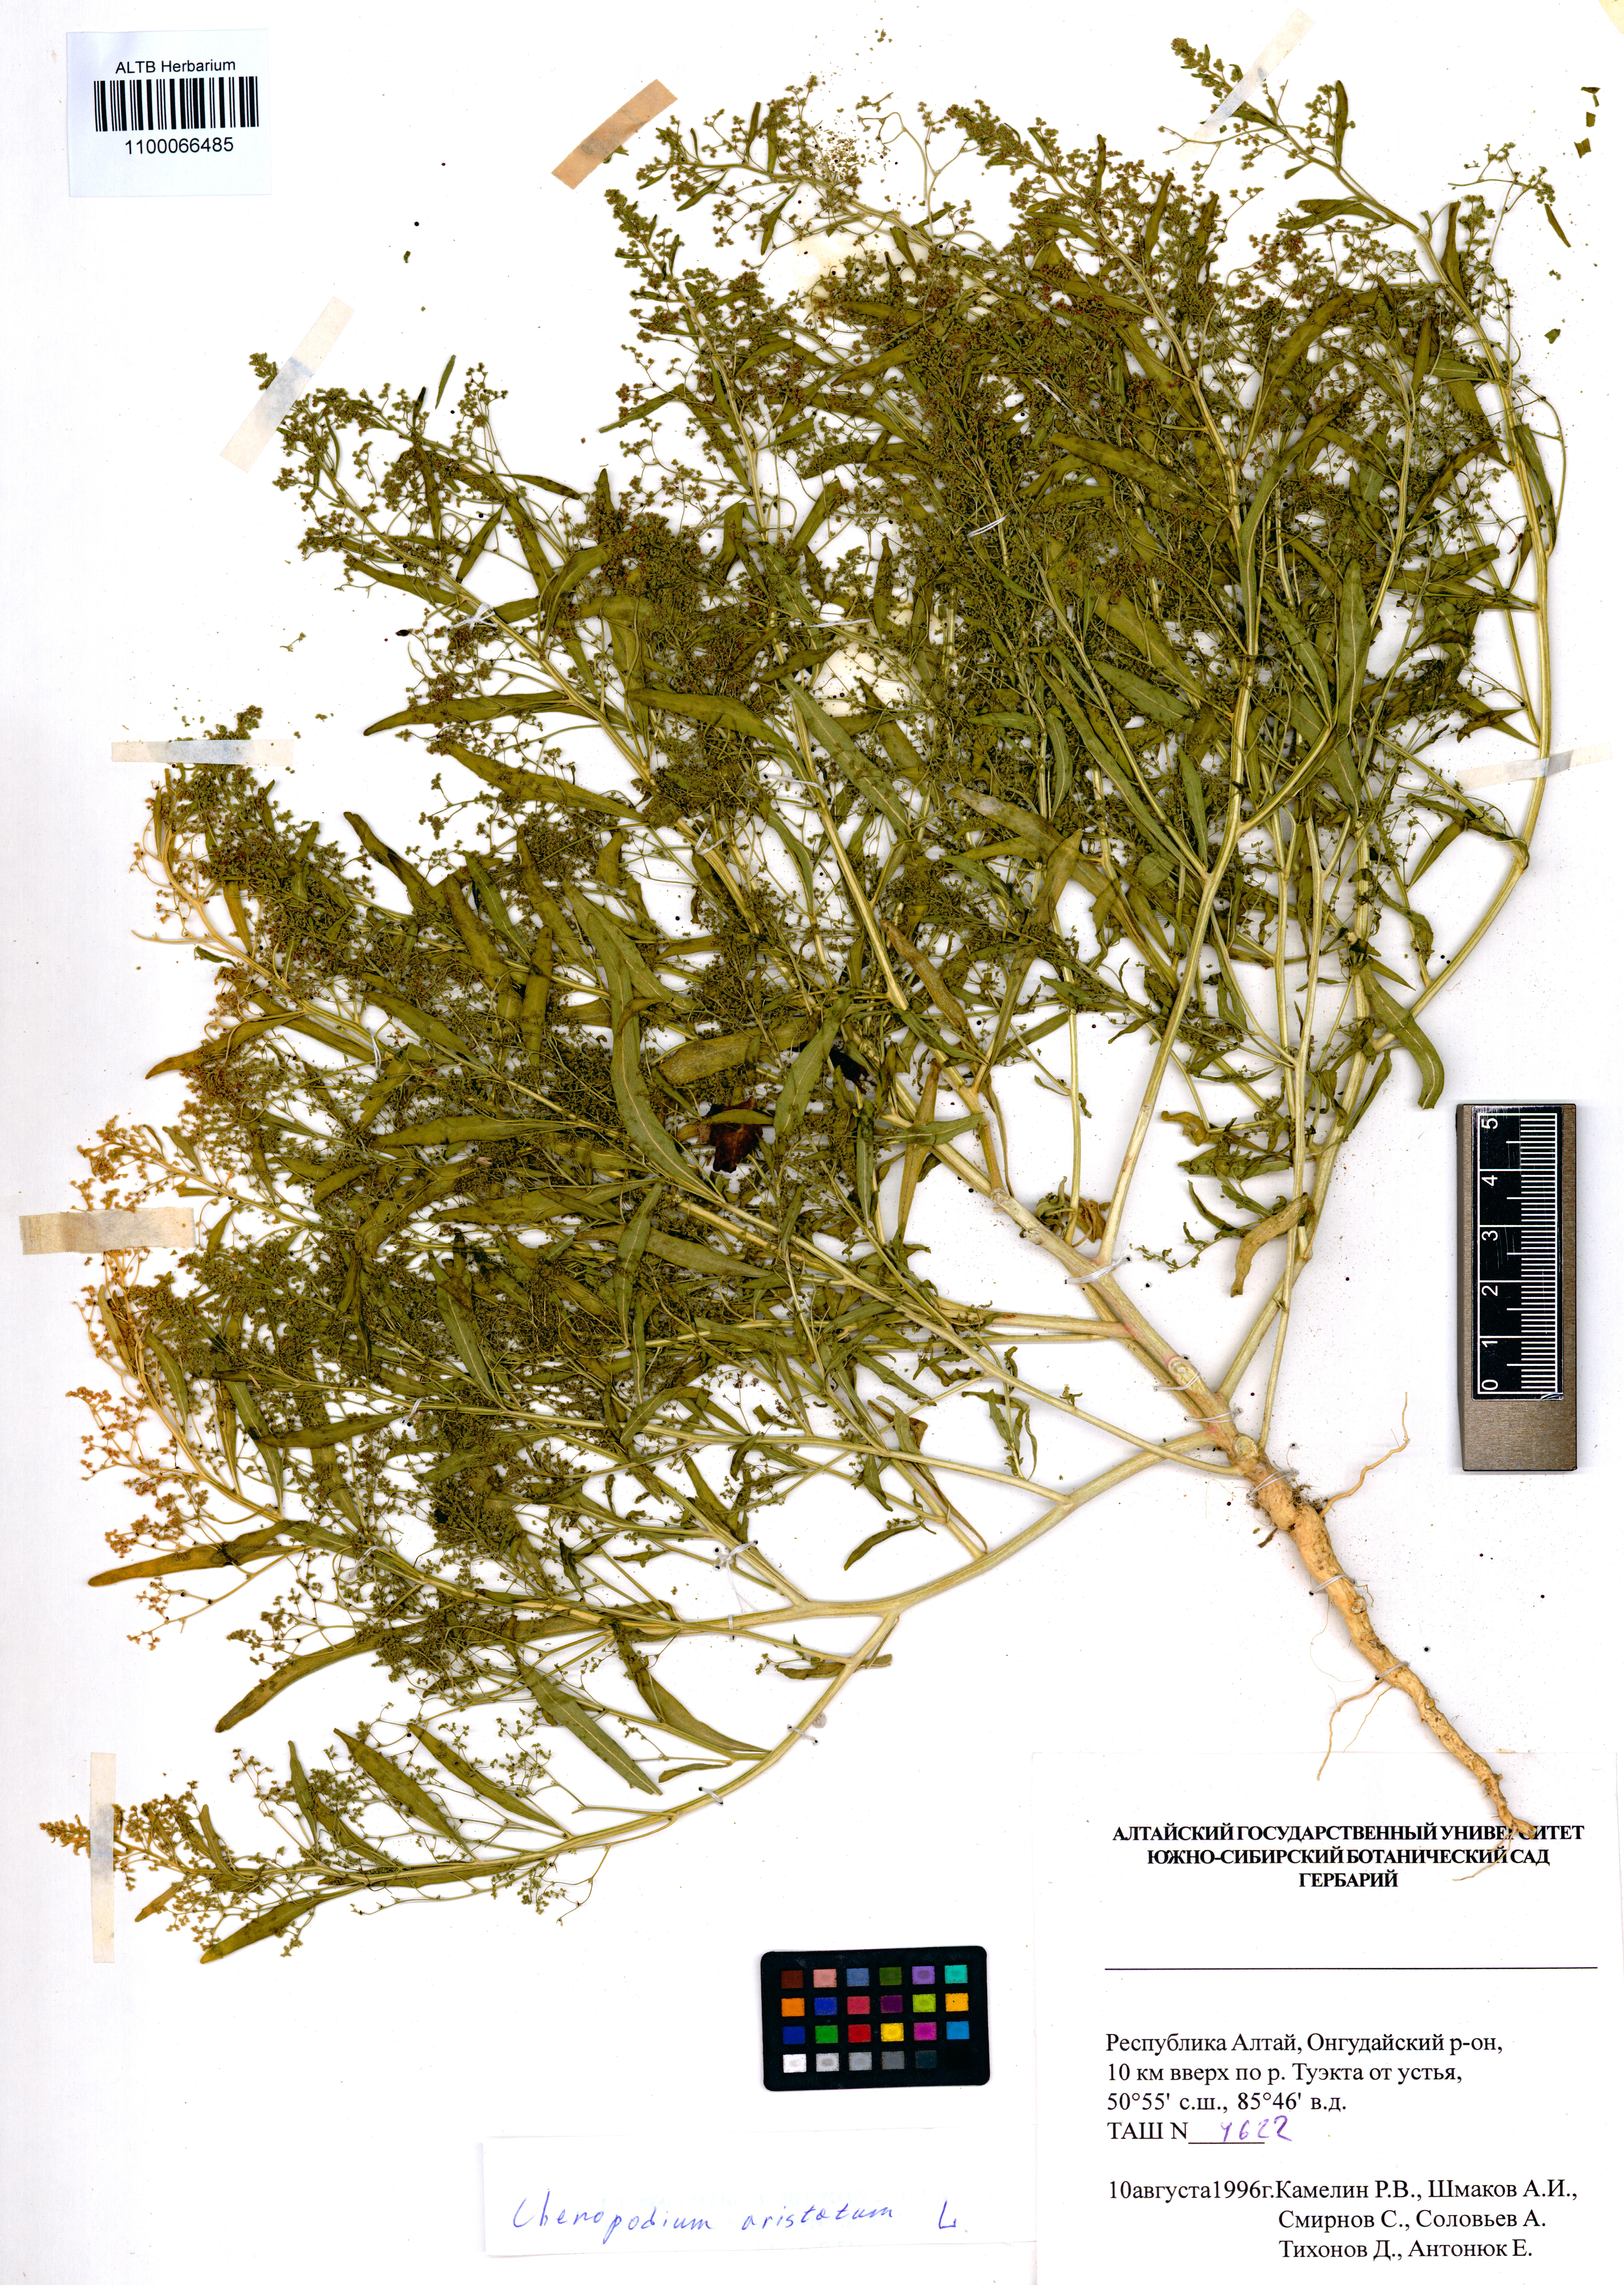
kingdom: Plantae
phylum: Tracheophyta
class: Magnoliopsida
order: Caryophyllales
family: Amaranthaceae
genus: Teloxys
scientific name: Teloxys aristata
